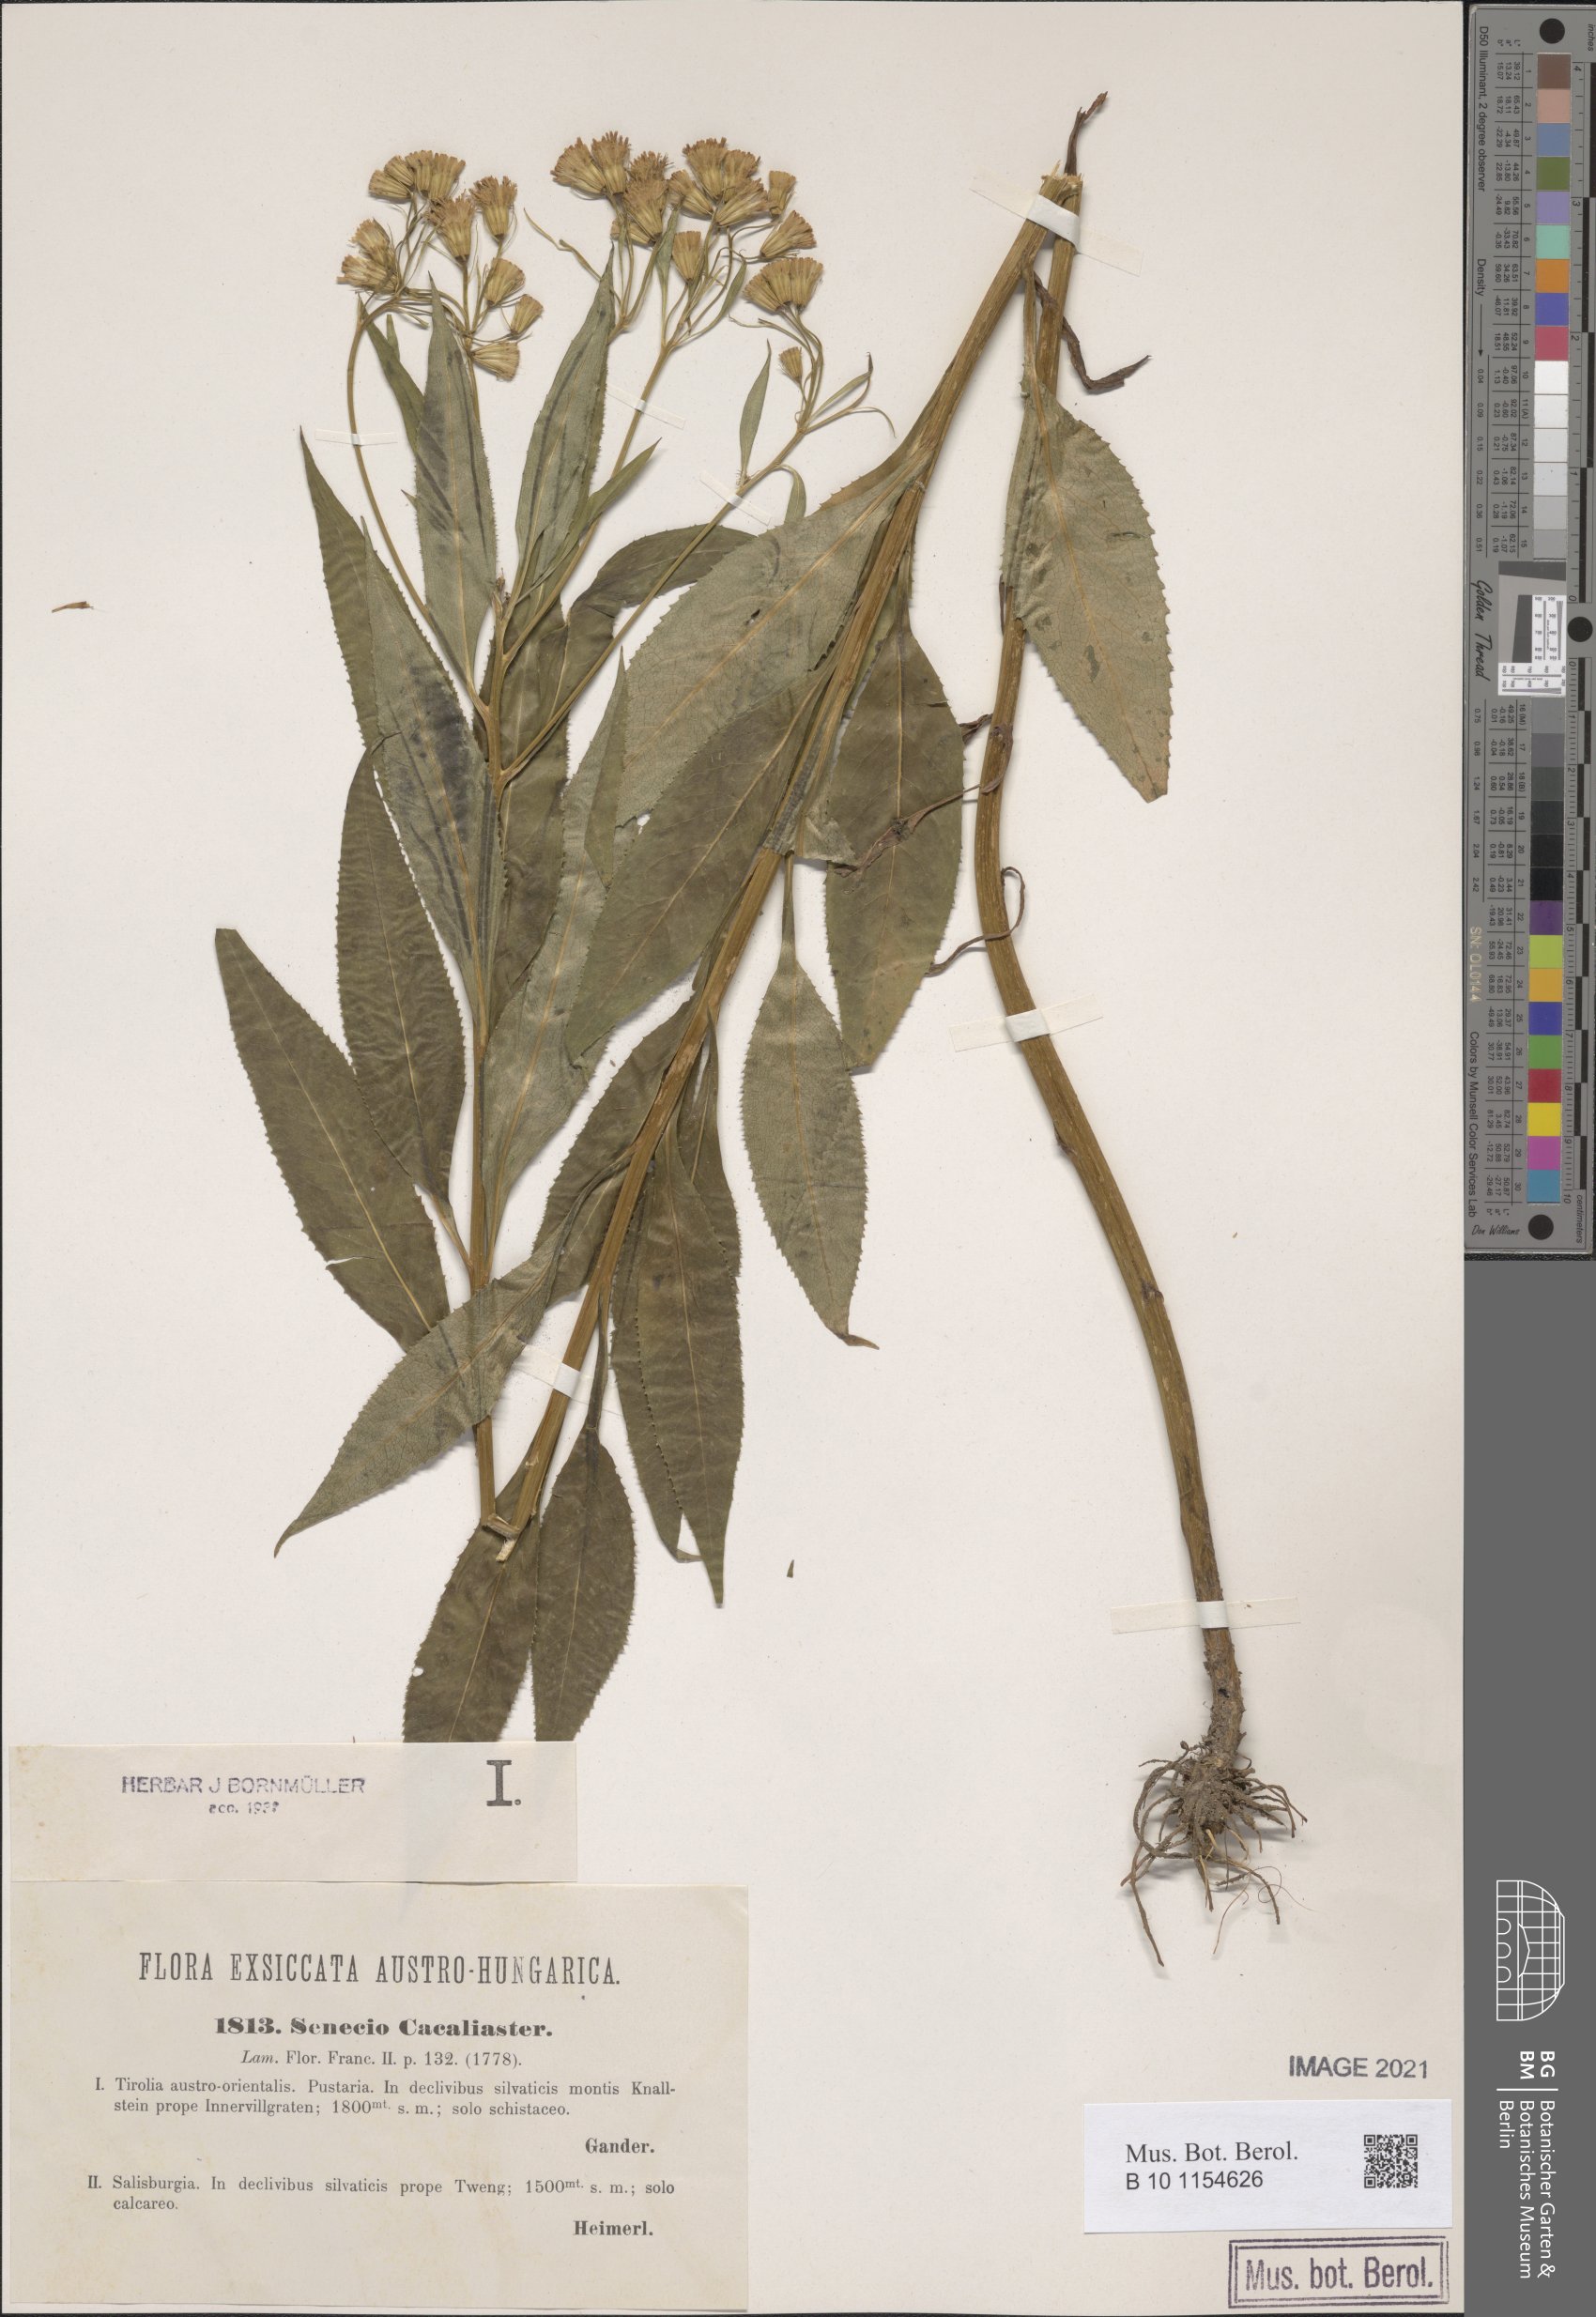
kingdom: Plantae
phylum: Tracheophyta
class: Magnoliopsida
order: Asterales
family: Asteraceae
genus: Senecio
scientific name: Senecio cacaliaster
